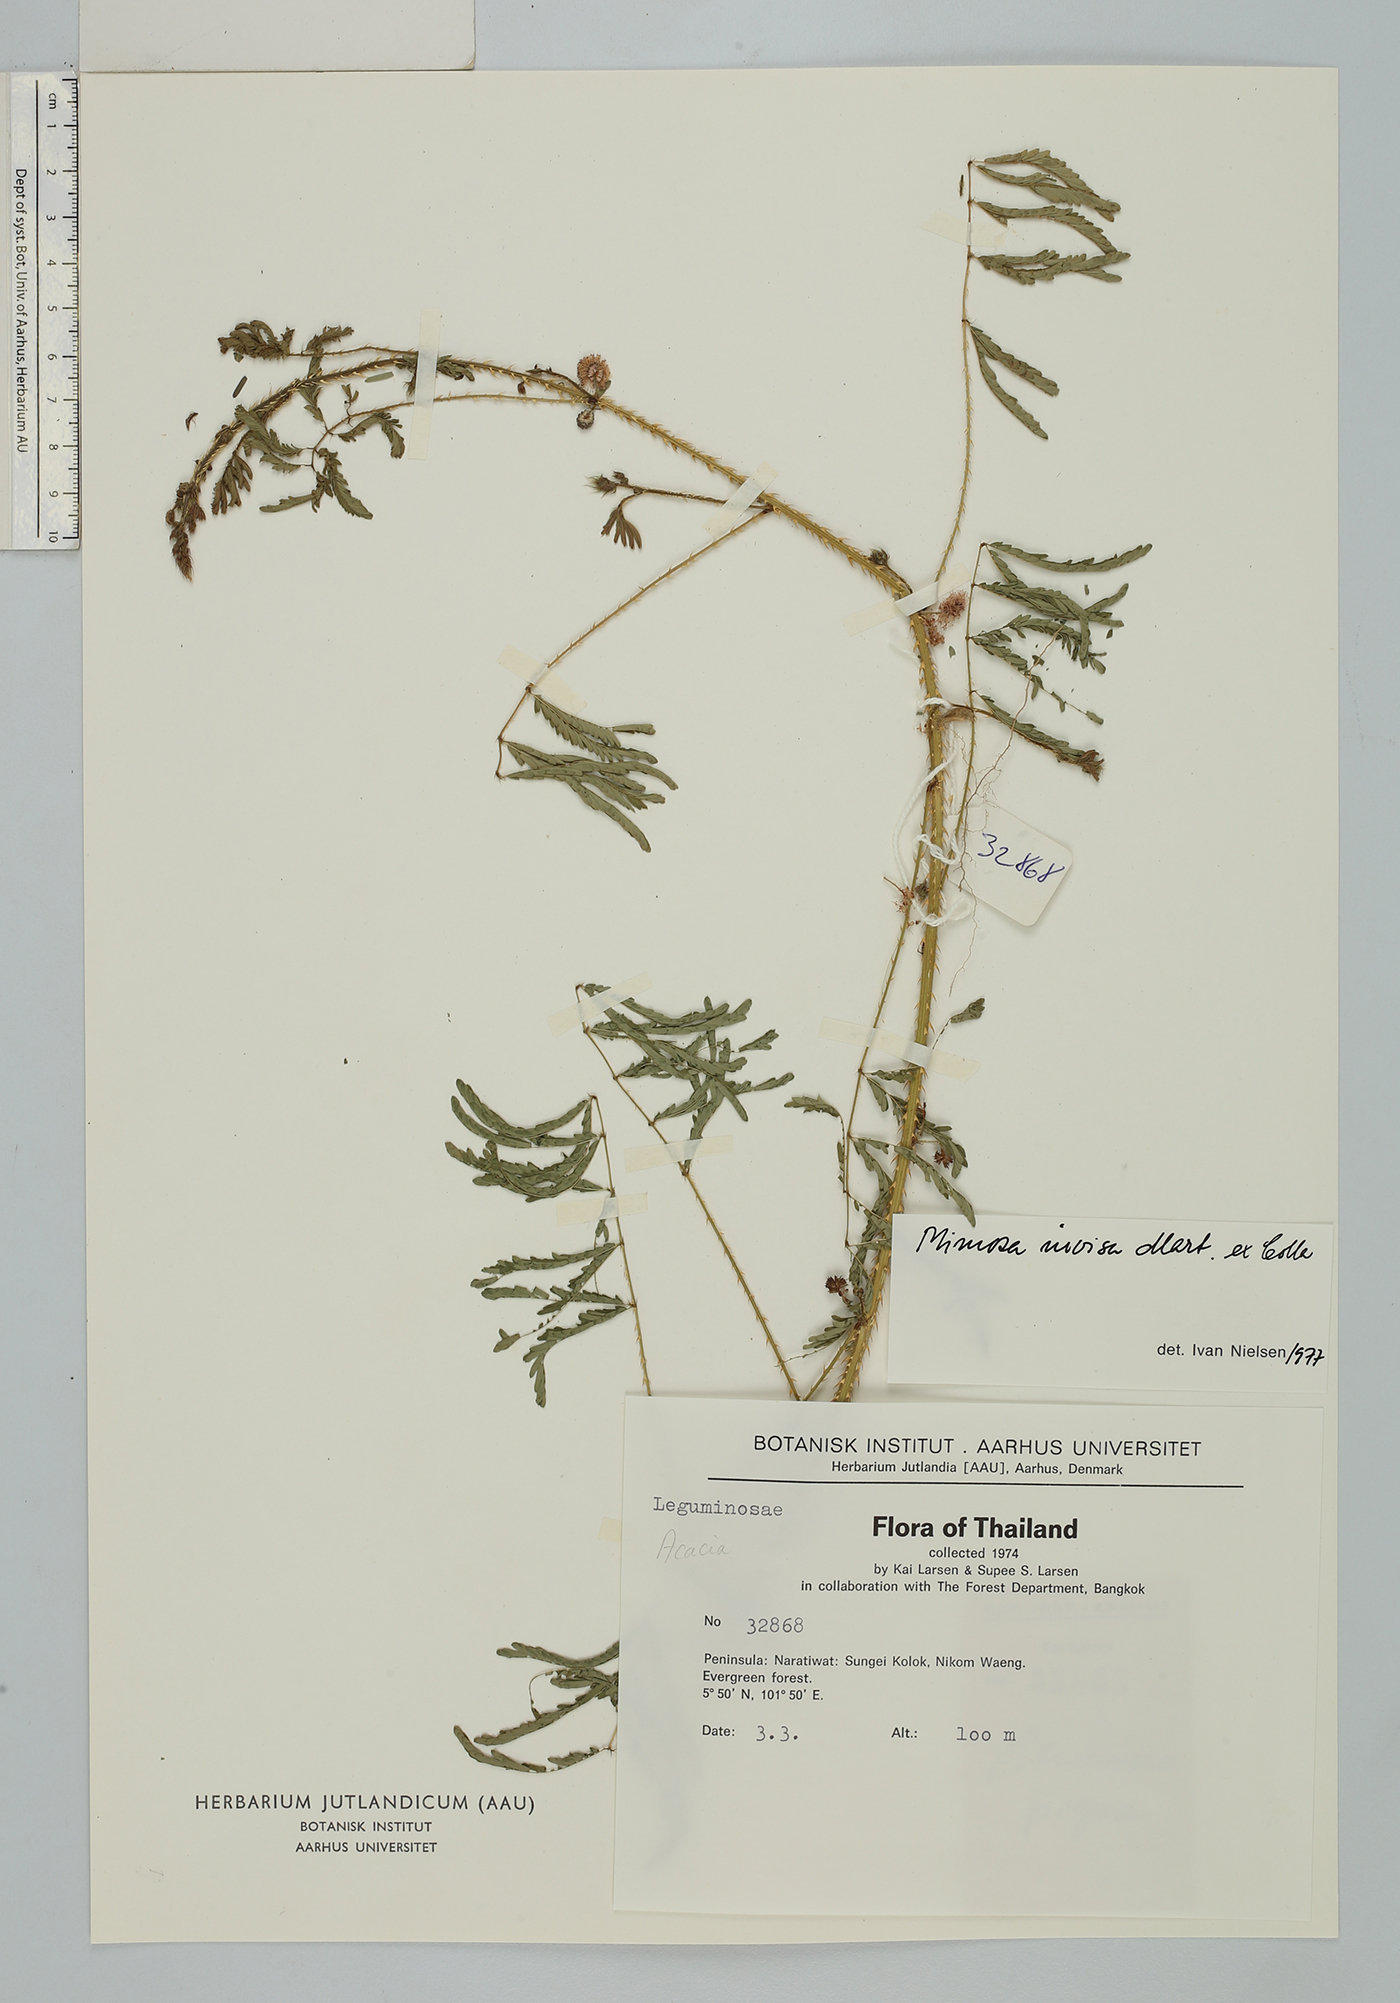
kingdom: Plantae
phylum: Tracheophyta
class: Magnoliopsida
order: Fabales
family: Fabaceae
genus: Mimosa
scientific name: Mimosa diplotricha
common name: Giant sensitive-plant
